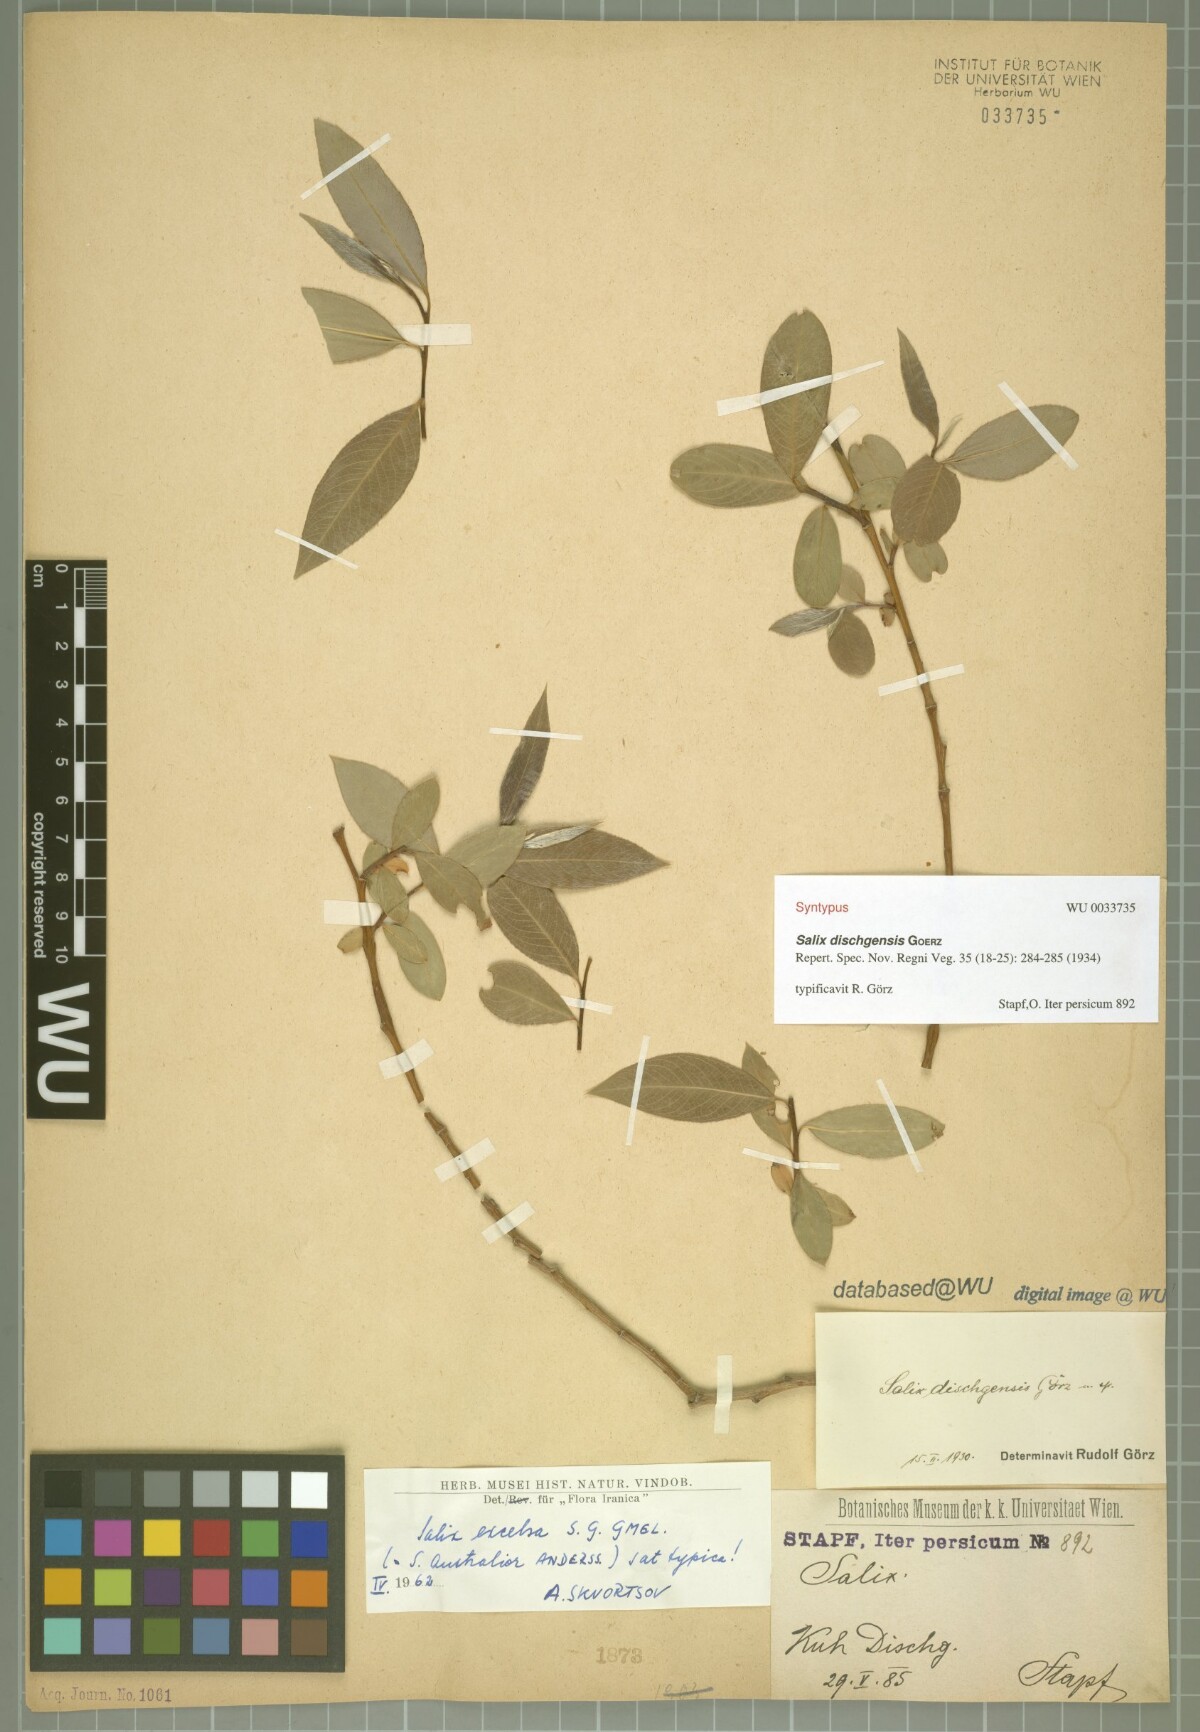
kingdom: Plantae
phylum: Tracheophyta
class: Magnoliopsida
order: Malpighiales
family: Salicaceae
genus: Salix
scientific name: Salix excelsa
